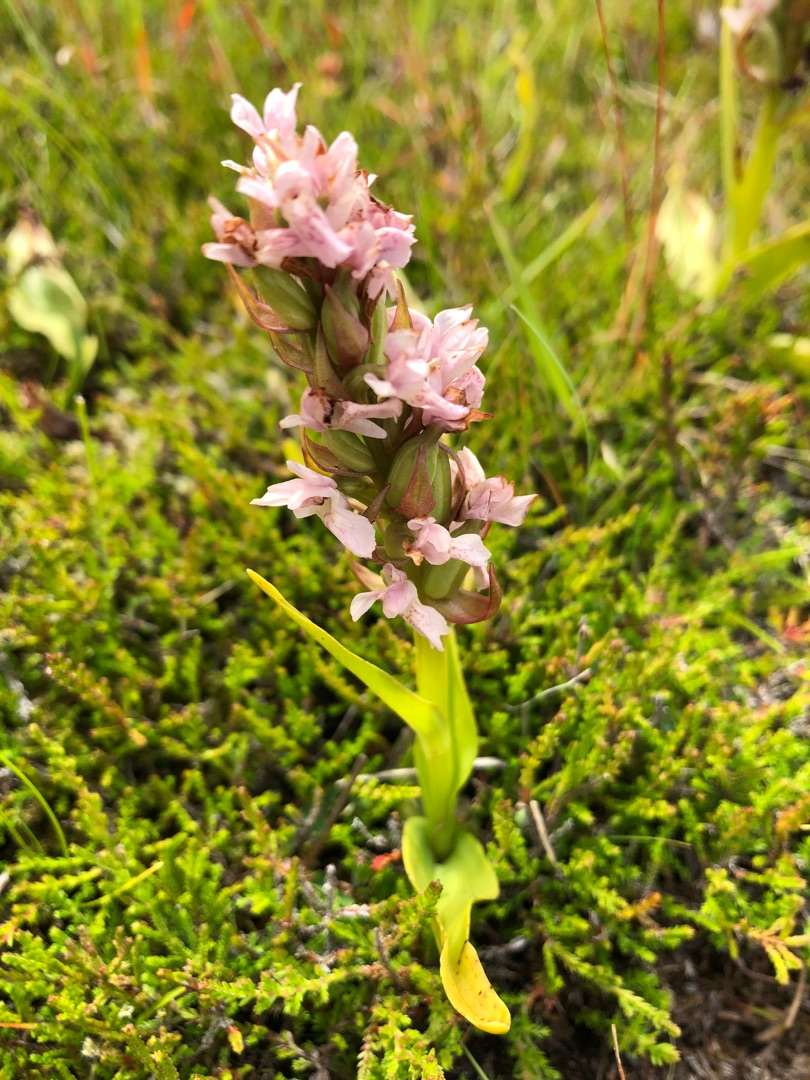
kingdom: Plantae
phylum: Tracheophyta
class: Liliopsida
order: Asparagales
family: Orchidaceae
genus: Dactylorhiza
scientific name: Dactylorhiza incarnata
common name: Kødfarvet gøgeurt
